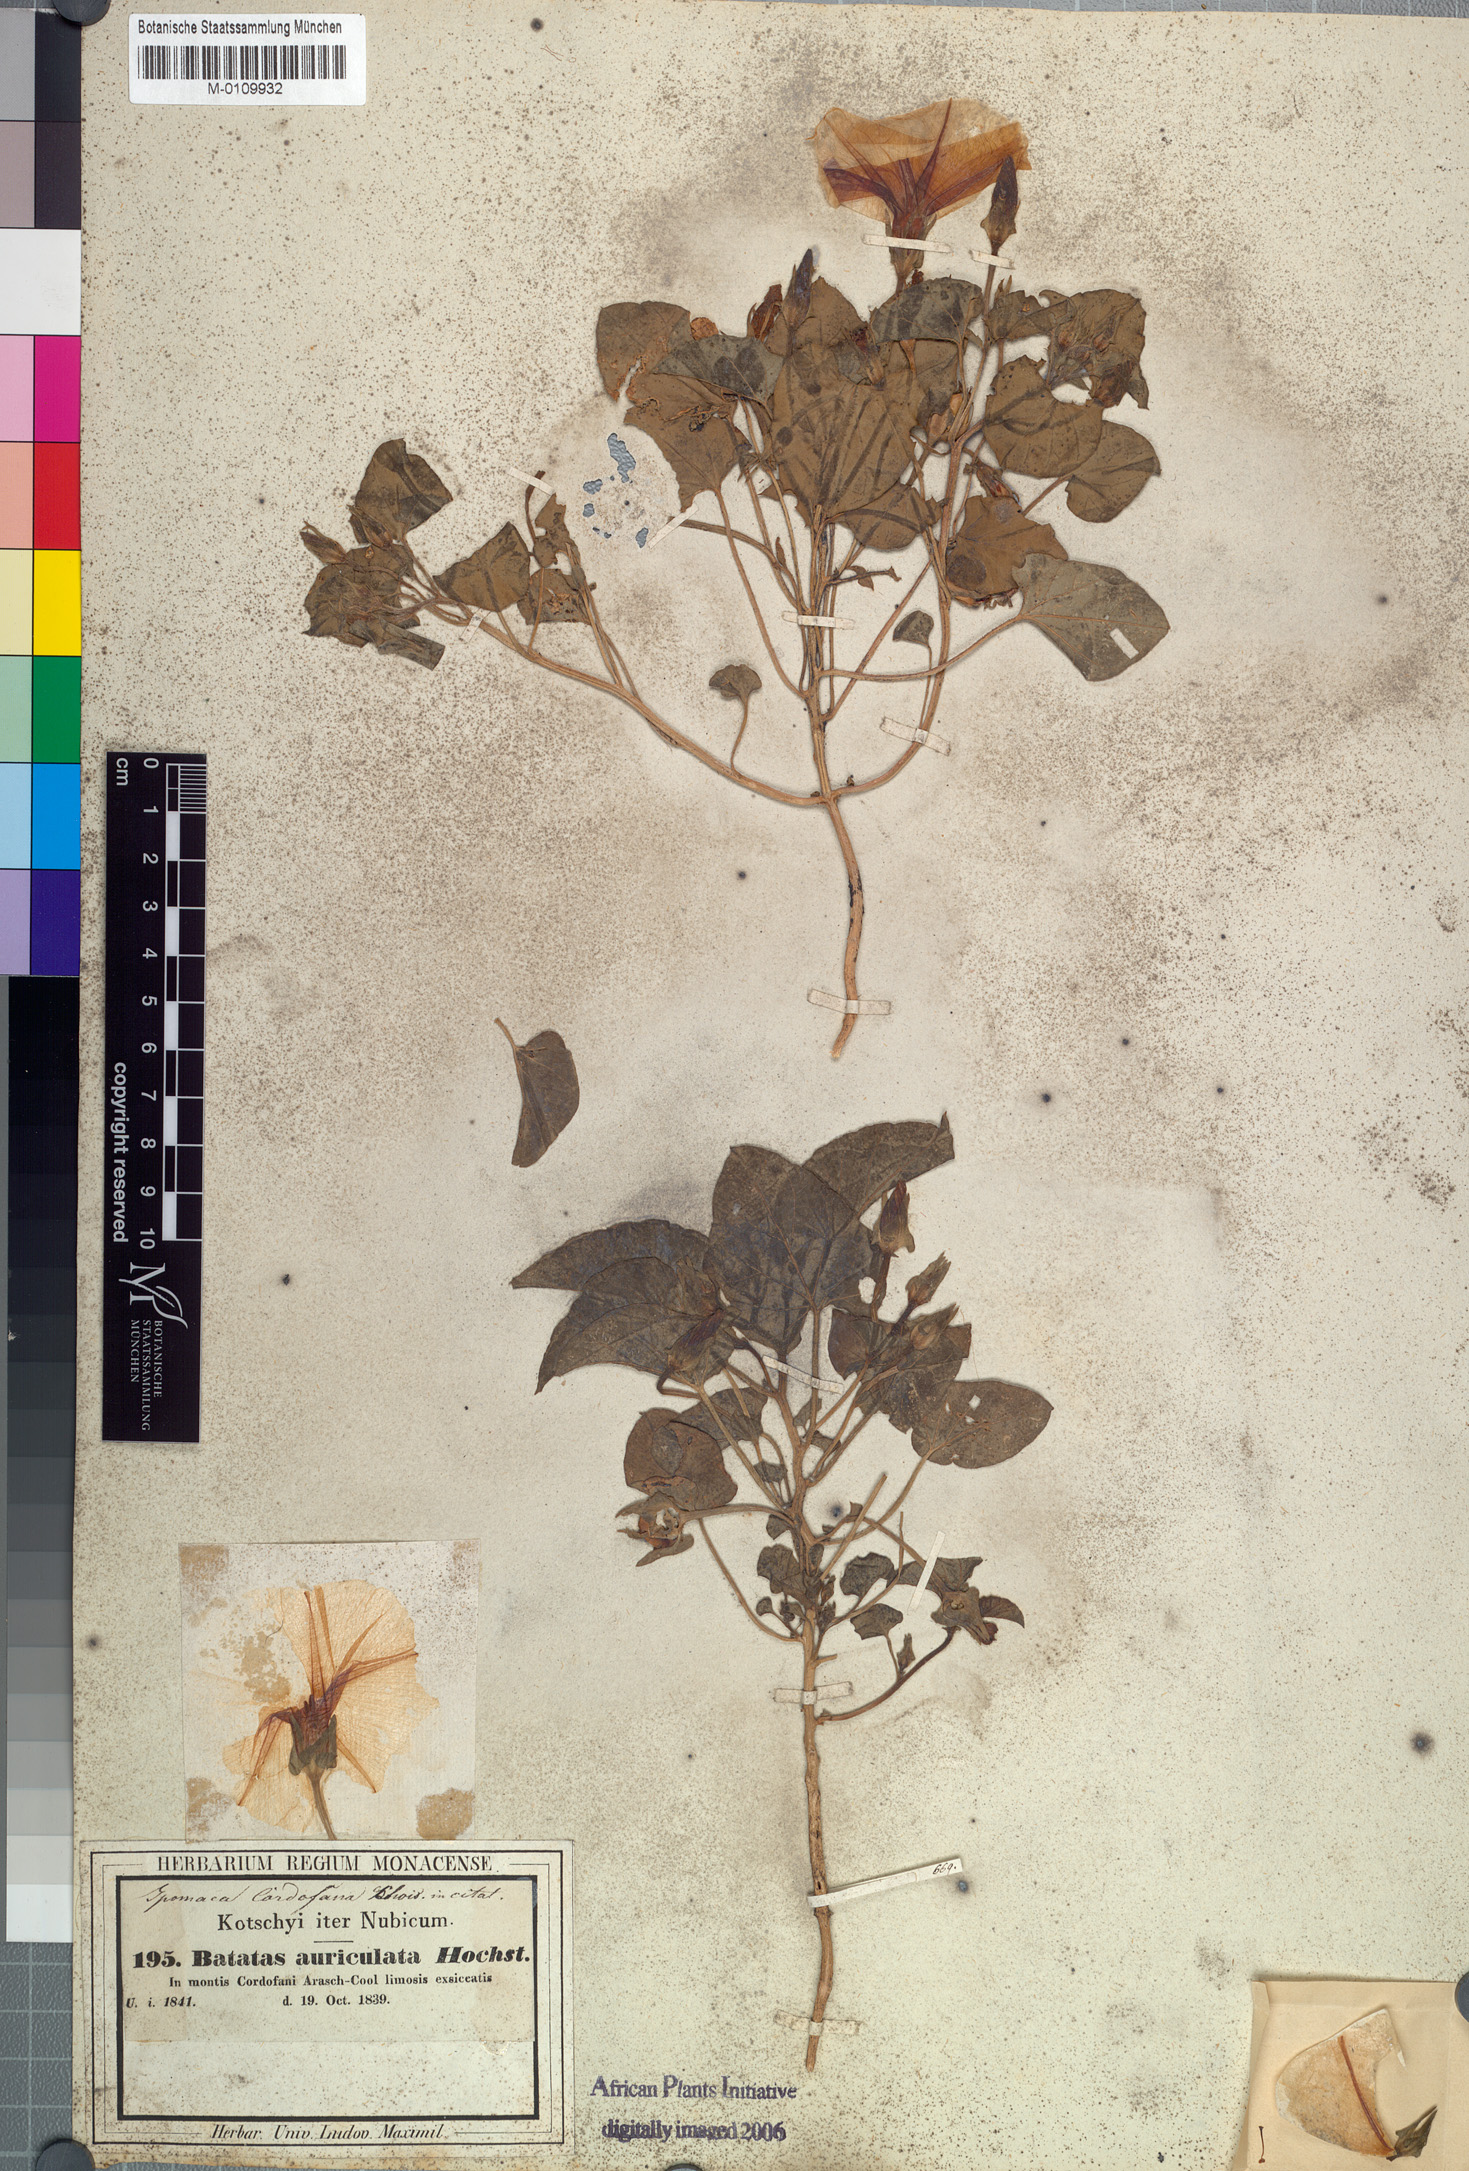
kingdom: Plantae
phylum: Tracheophyta
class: Magnoliopsida
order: Solanales
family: Convolvulaceae
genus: Ipomoea
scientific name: Ipomoea cordofana
